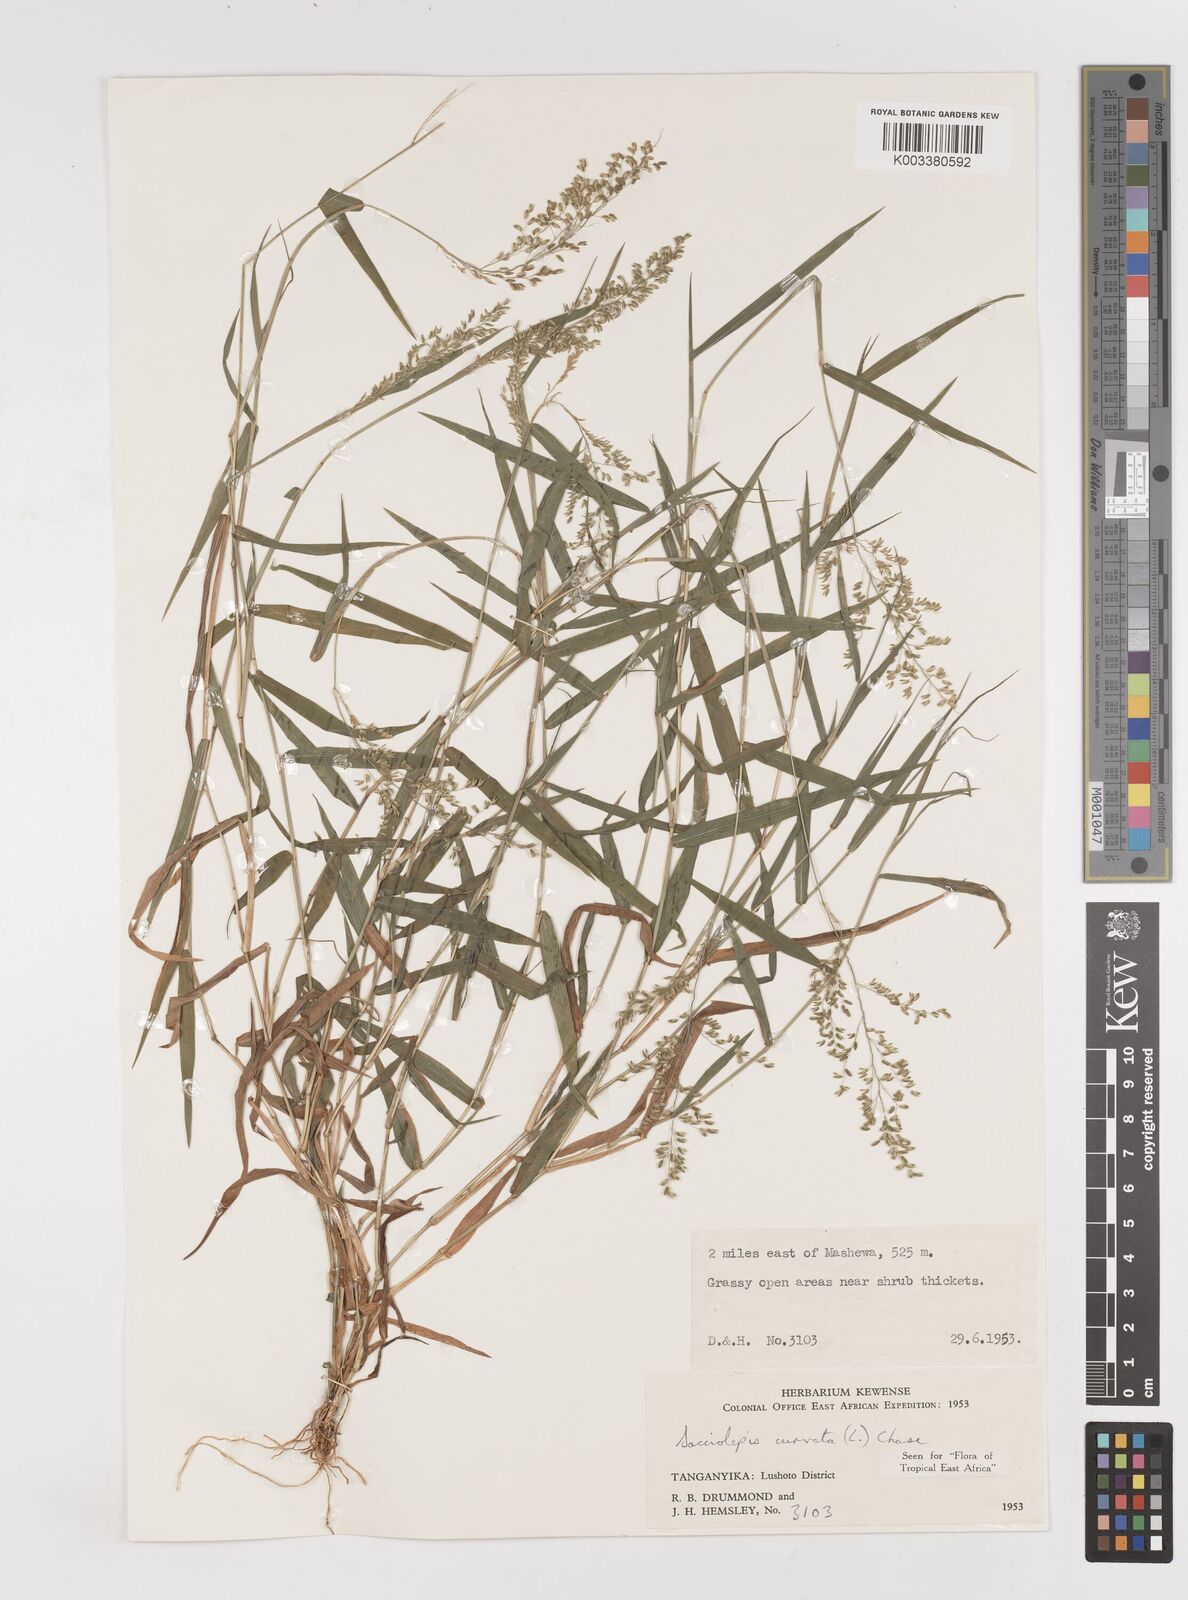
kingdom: Plantae
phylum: Tracheophyta
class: Liliopsida
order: Poales
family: Poaceae
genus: Sacciolepis
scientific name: Sacciolepis curvata
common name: Forest hood grass
